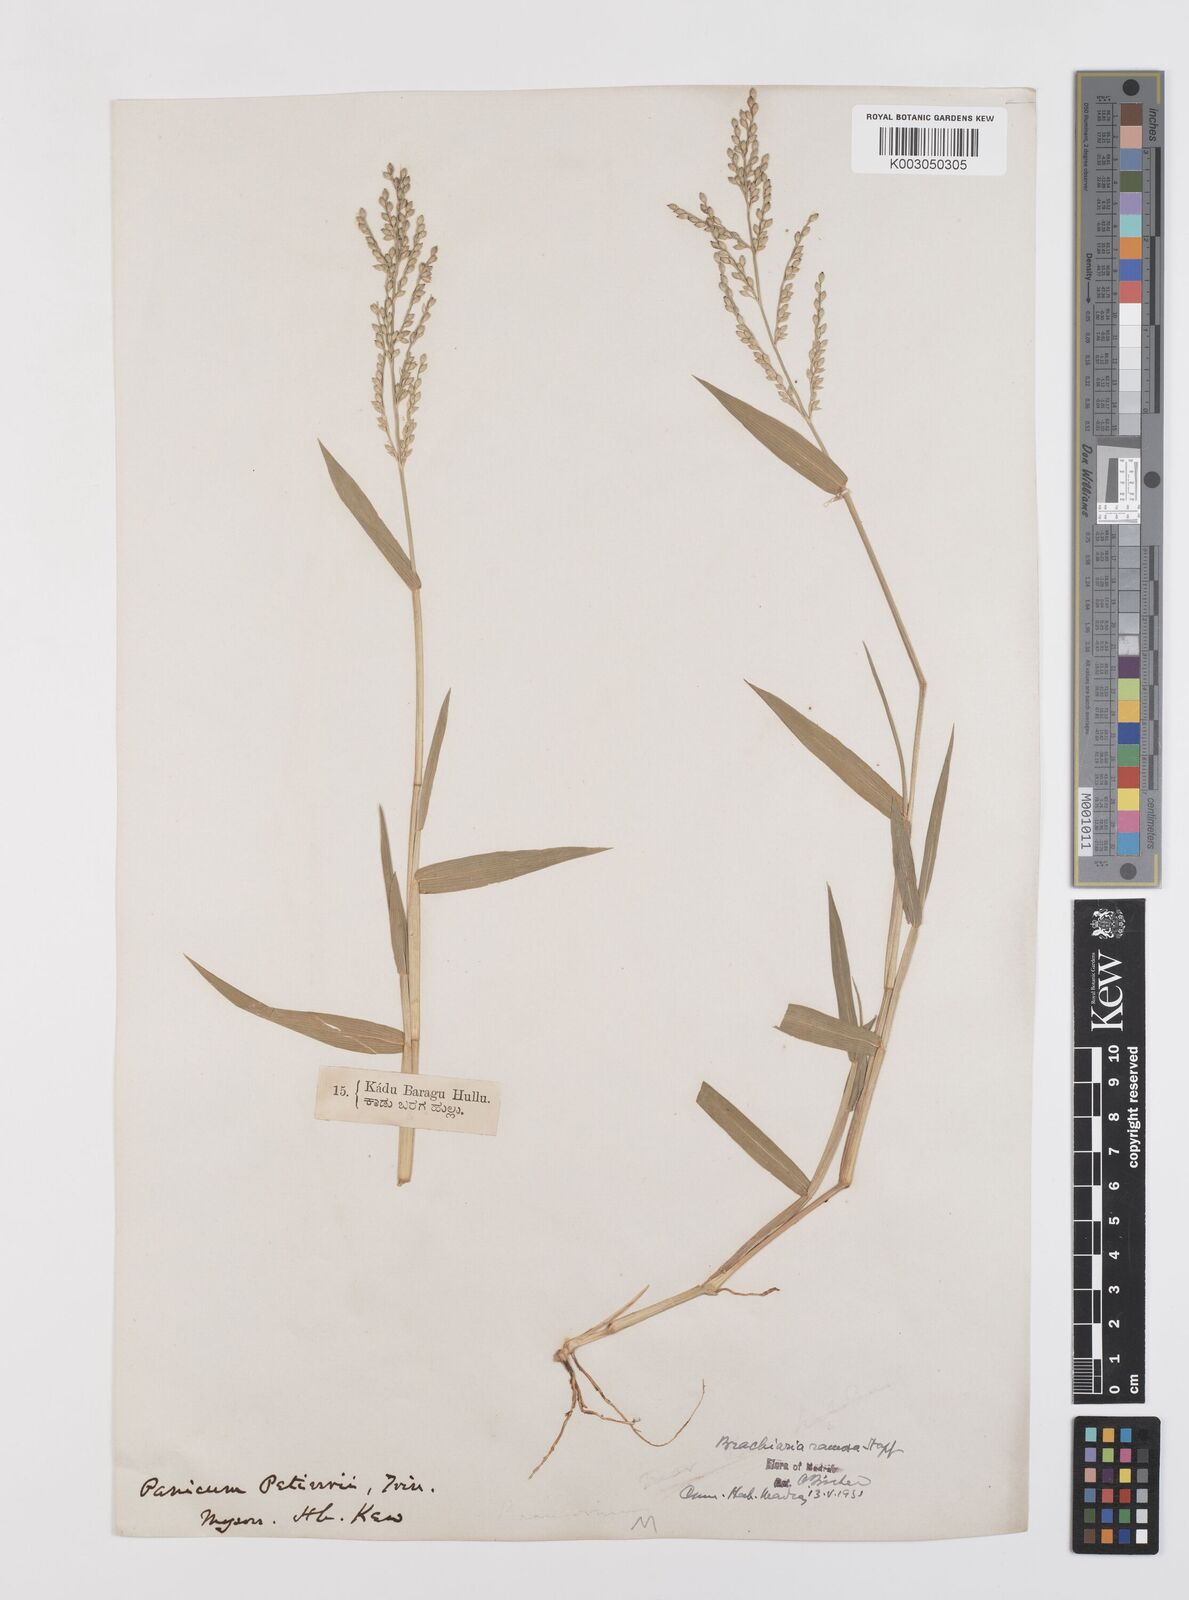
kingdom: Plantae
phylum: Tracheophyta
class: Liliopsida
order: Poales
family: Poaceae
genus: Urochloa
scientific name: Urochloa ramosa
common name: Browntop millet
